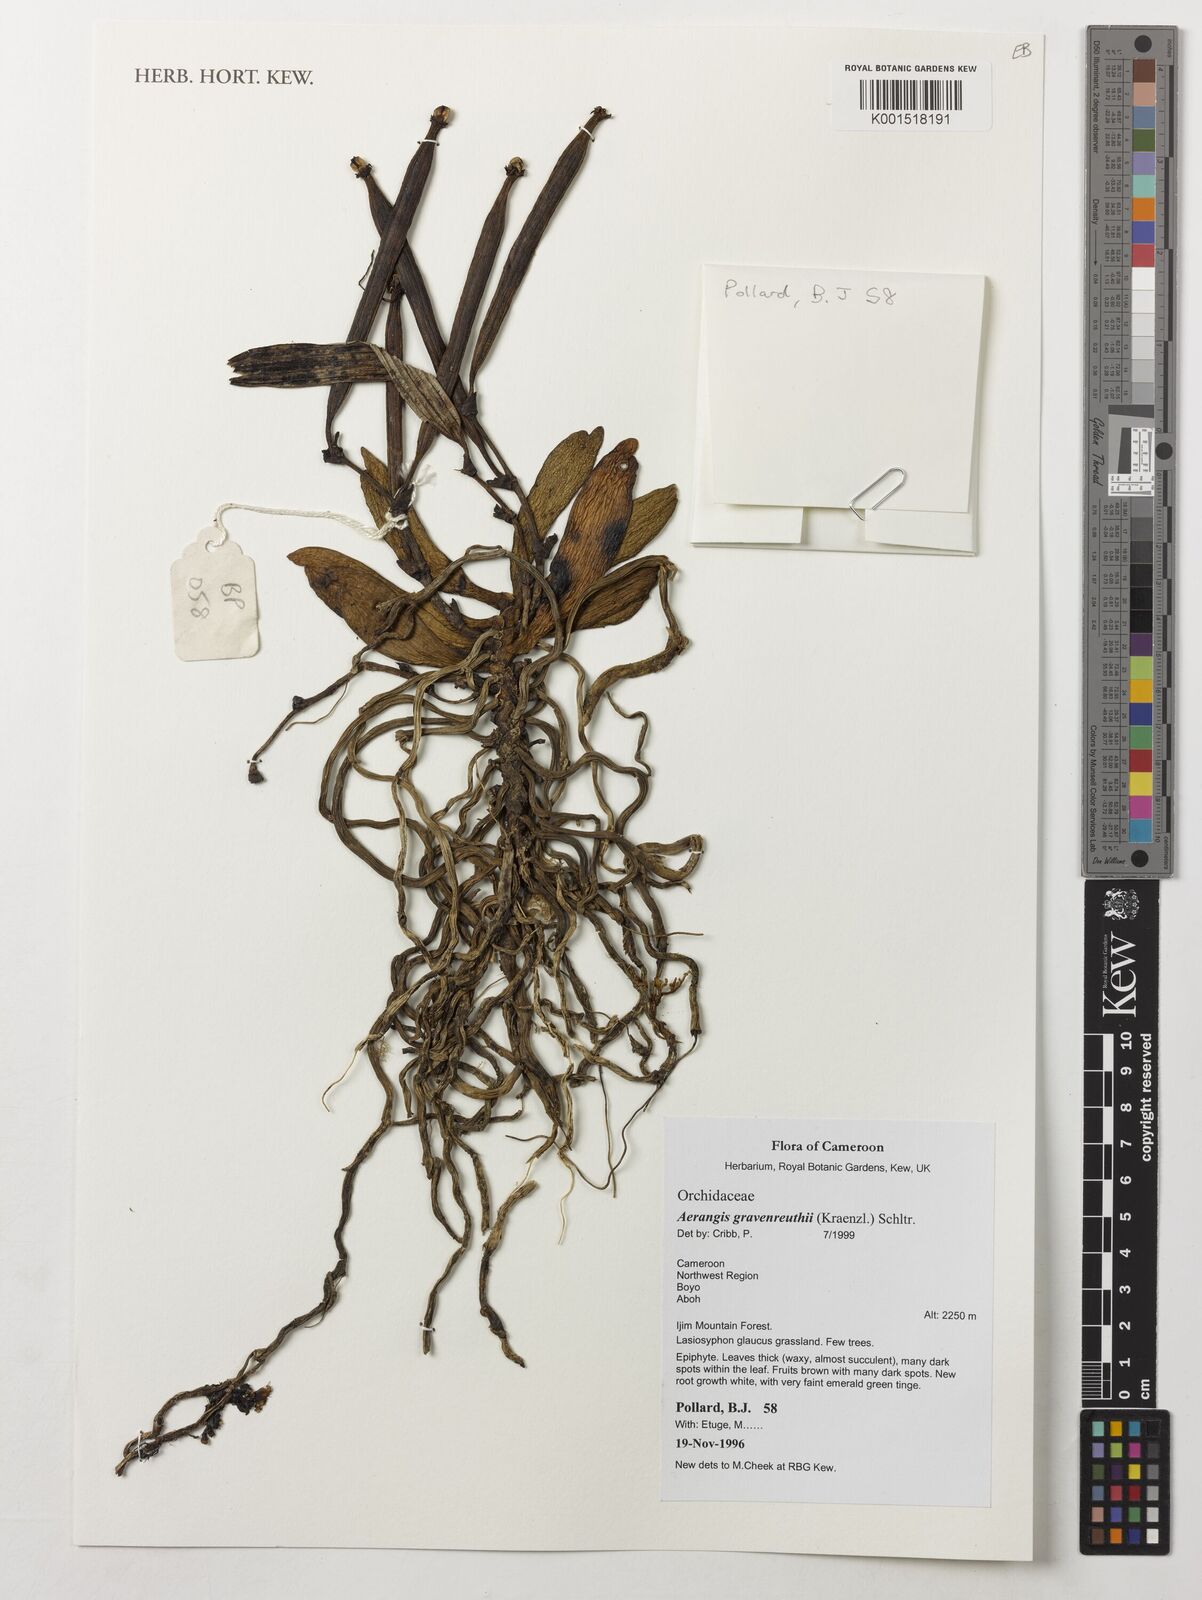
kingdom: Plantae
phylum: Tracheophyta
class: Liliopsida
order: Asparagales
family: Orchidaceae
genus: Aerangis
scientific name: Aerangis gravenreuthii
